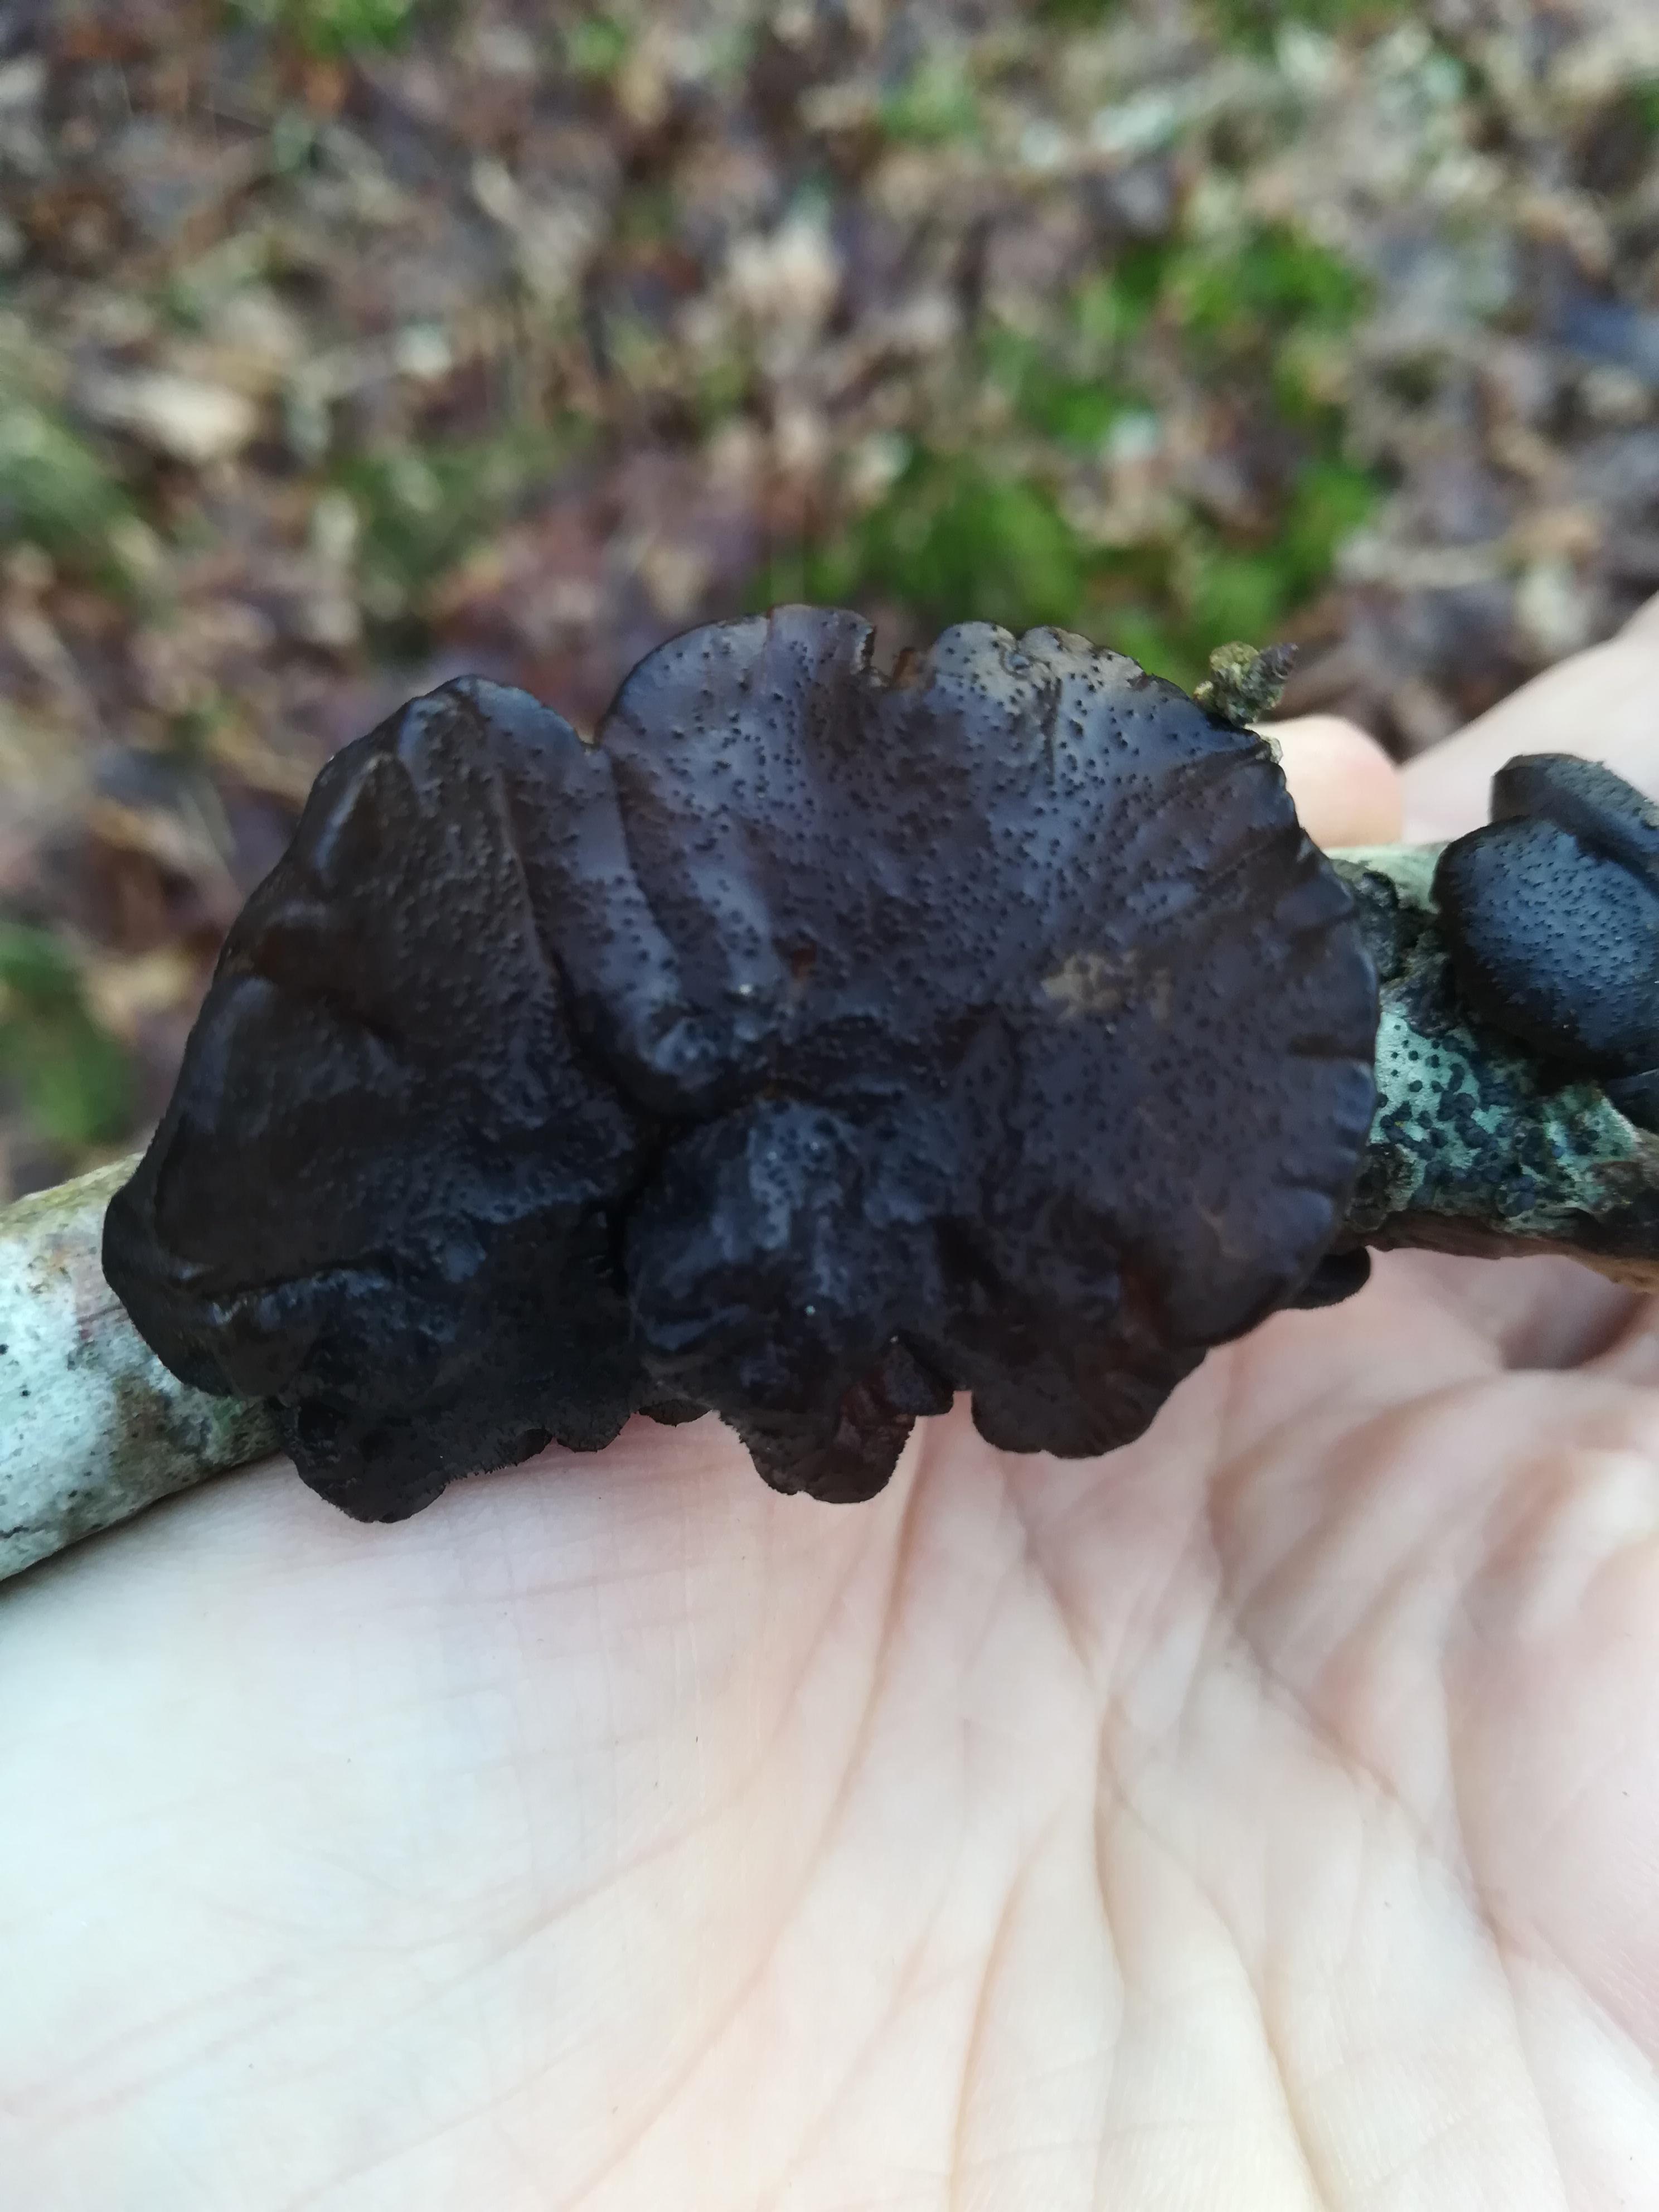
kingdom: Fungi
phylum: Basidiomycota
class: Agaricomycetes
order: Auriculariales
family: Auriculariaceae
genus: Exidia
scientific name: Exidia glandulosa
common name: ege-bævretop
